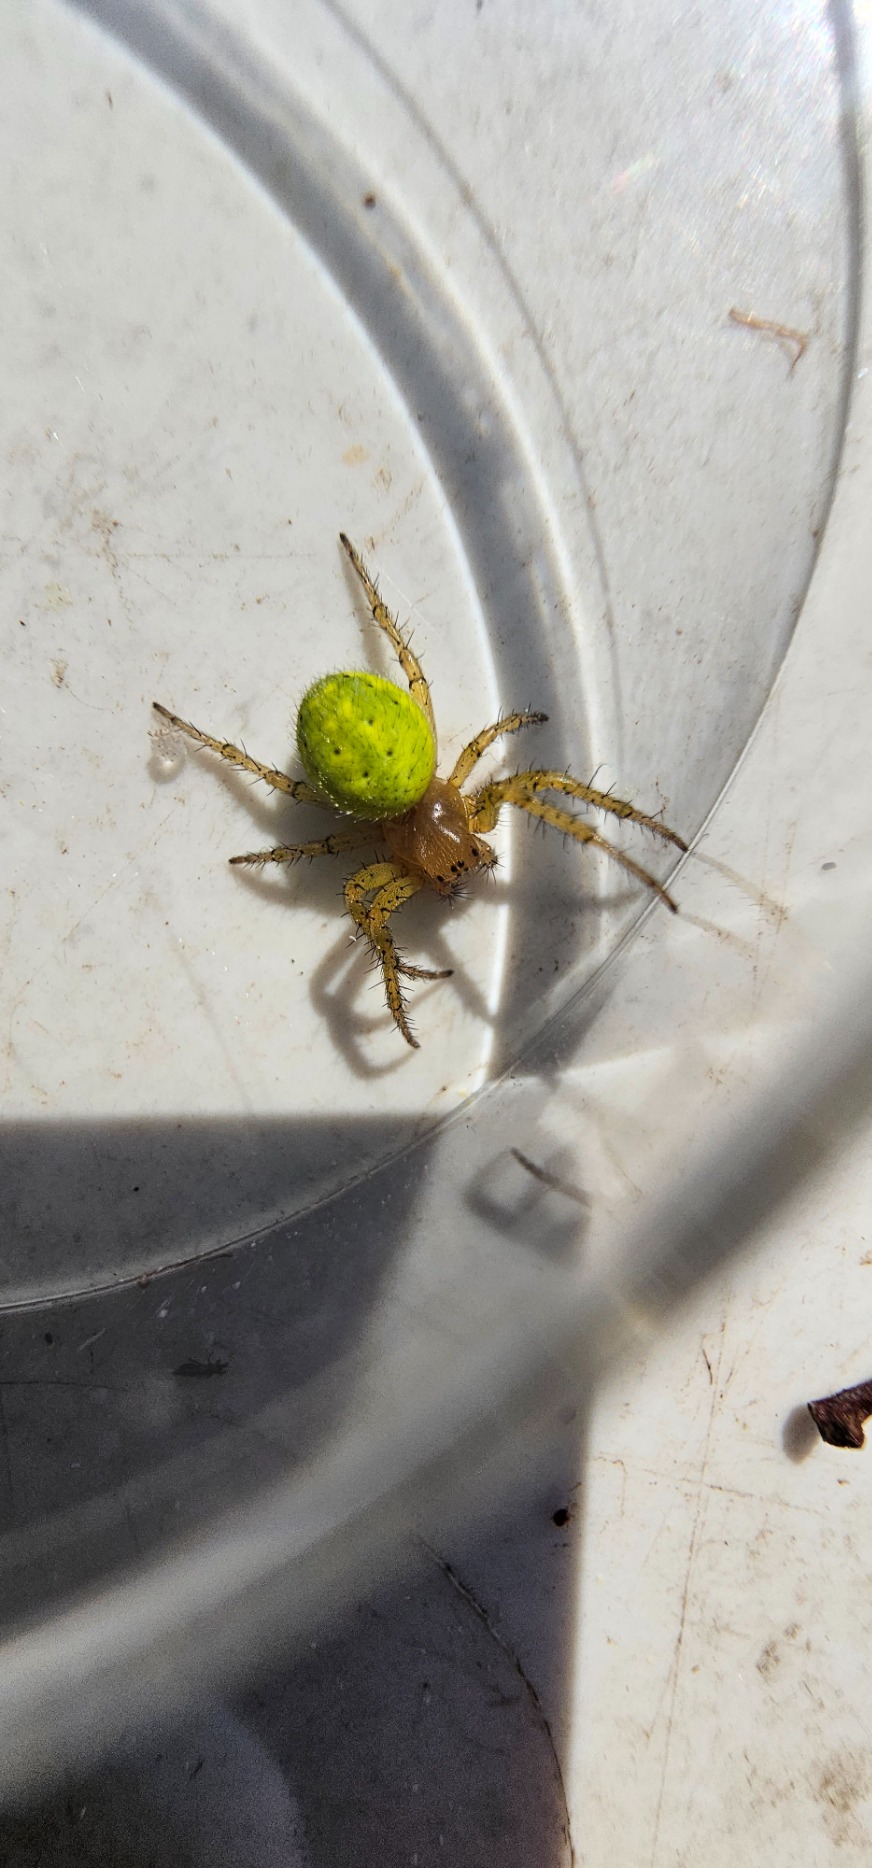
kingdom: Animalia
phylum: Arthropoda
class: Arachnida
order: Araneae
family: Araneidae
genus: Araniella
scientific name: Araniella
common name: Agurkeedderkopslægten
